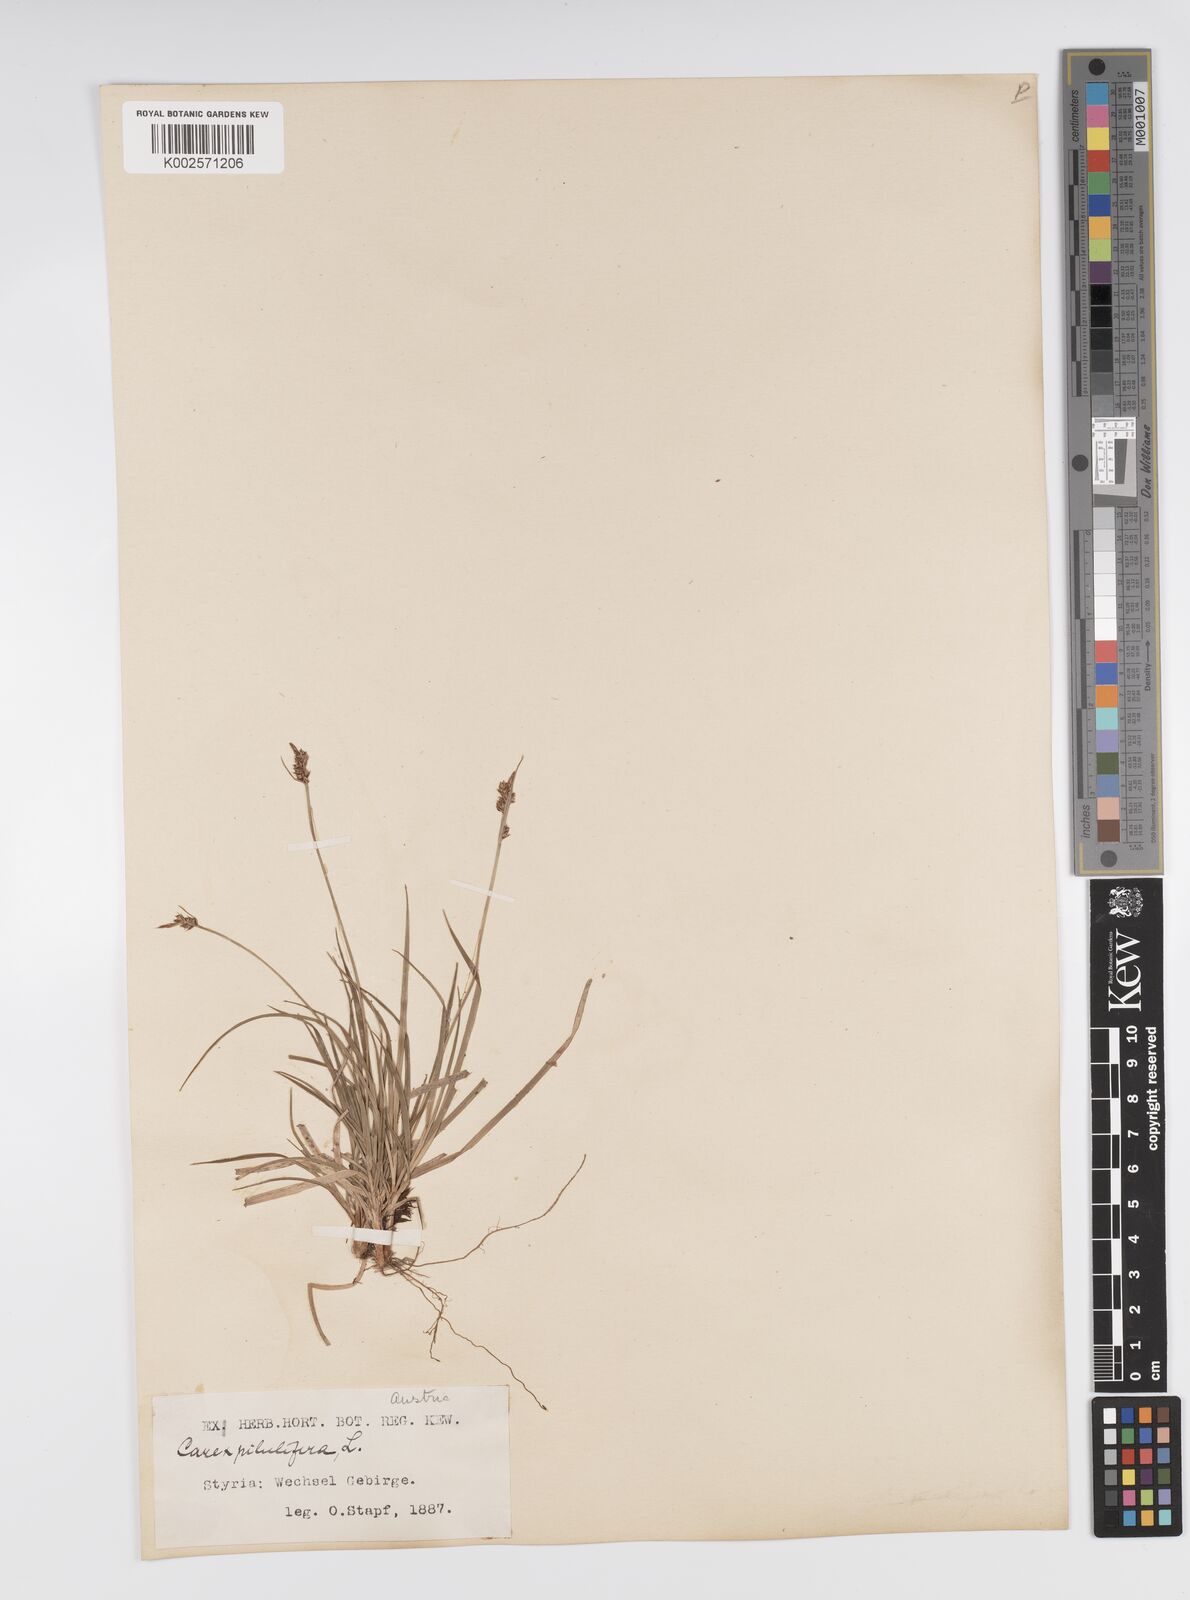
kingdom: Plantae
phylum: Tracheophyta
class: Liliopsida
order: Poales
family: Cyperaceae
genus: Carex
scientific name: Carex pilulifera
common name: Pill sedge
